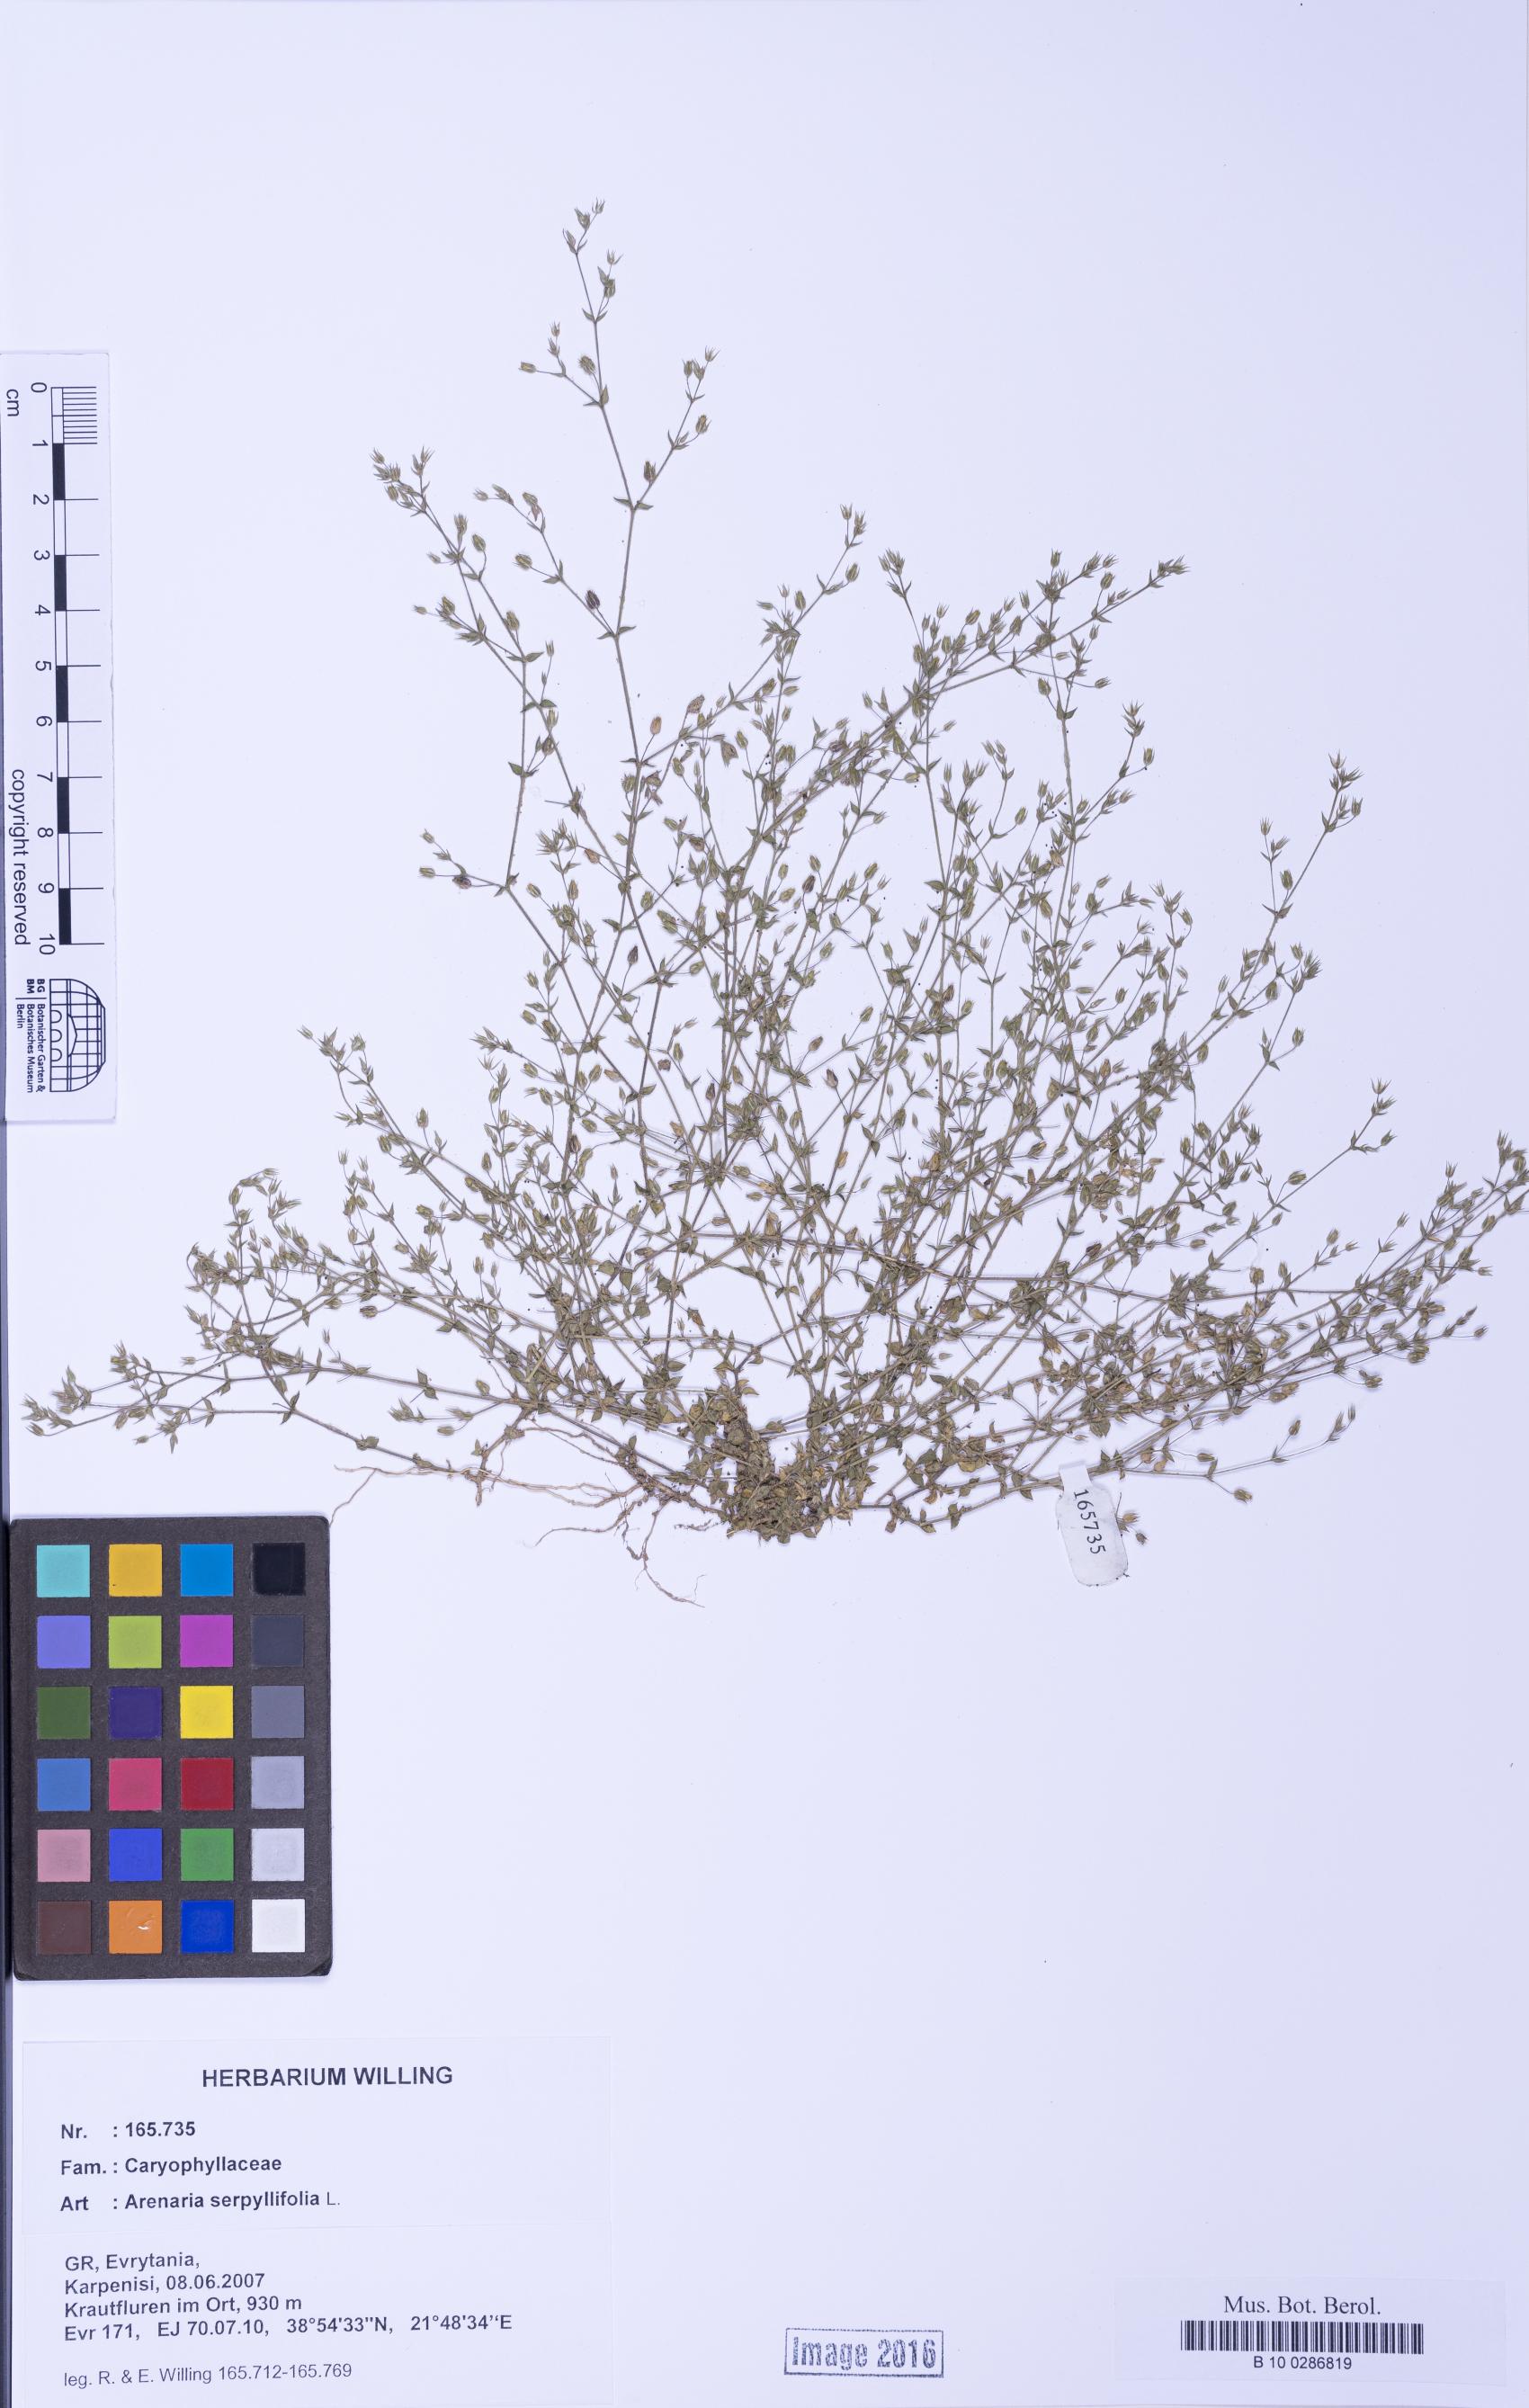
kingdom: Plantae
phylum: Tracheophyta
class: Magnoliopsida
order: Caryophyllales
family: Caryophyllaceae
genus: Arenaria
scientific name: Arenaria serpyllifolia
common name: Thyme-leaved sandwort
